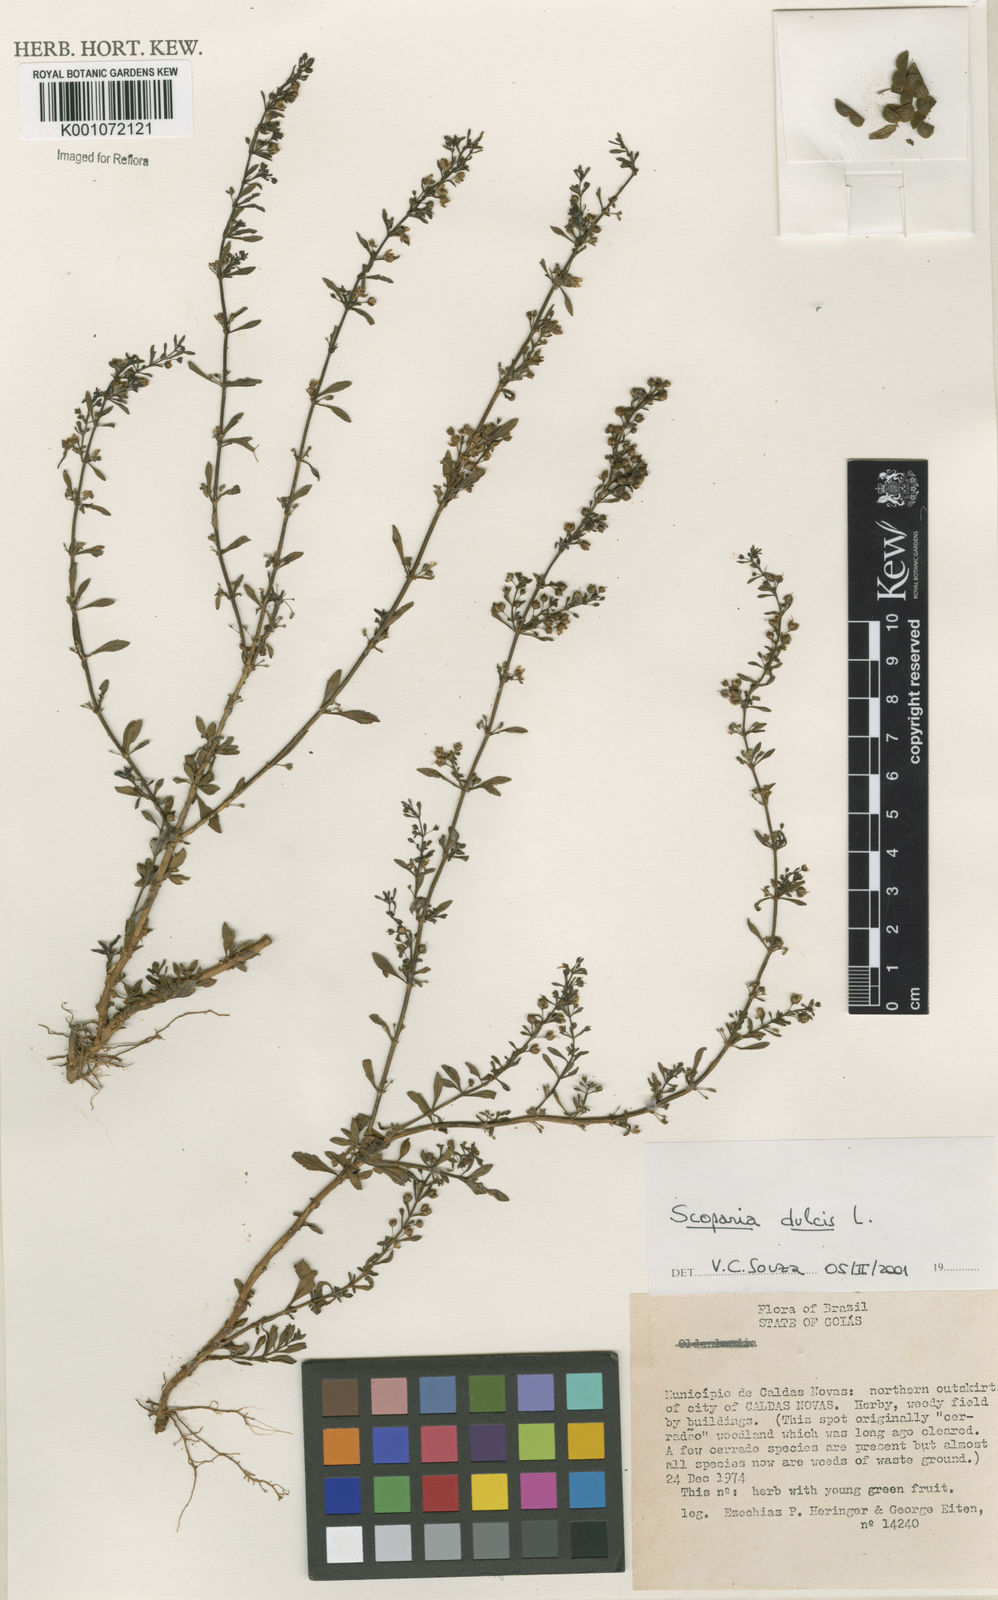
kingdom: Plantae
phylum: Tracheophyta
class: Magnoliopsida
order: Lamiales
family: Plantaginaceae
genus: Scoparia
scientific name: Scoparia dulcis
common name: Scoparia-weed
